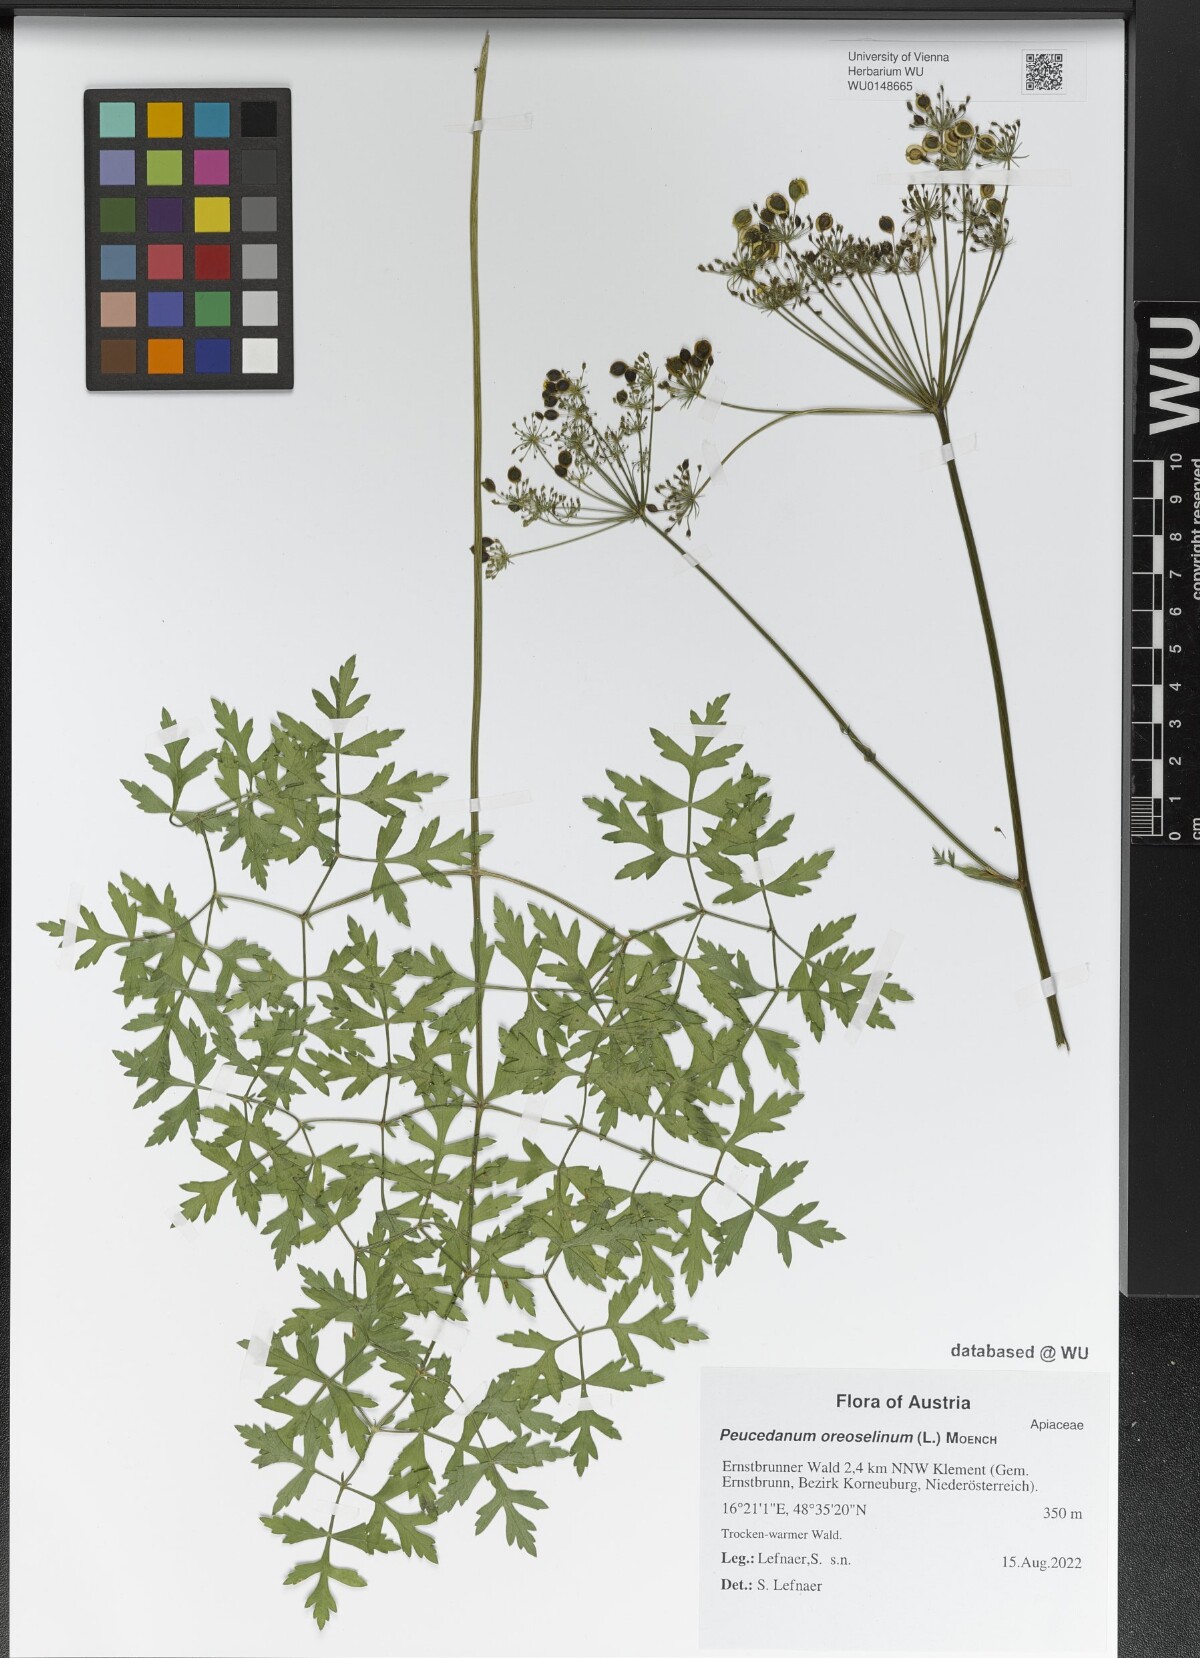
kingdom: Plantae
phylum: Tracheophyta
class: Magnoliopsida
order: Apiales
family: Apiaceae
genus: Oreoselinum
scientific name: Oreoselinum nigrum
